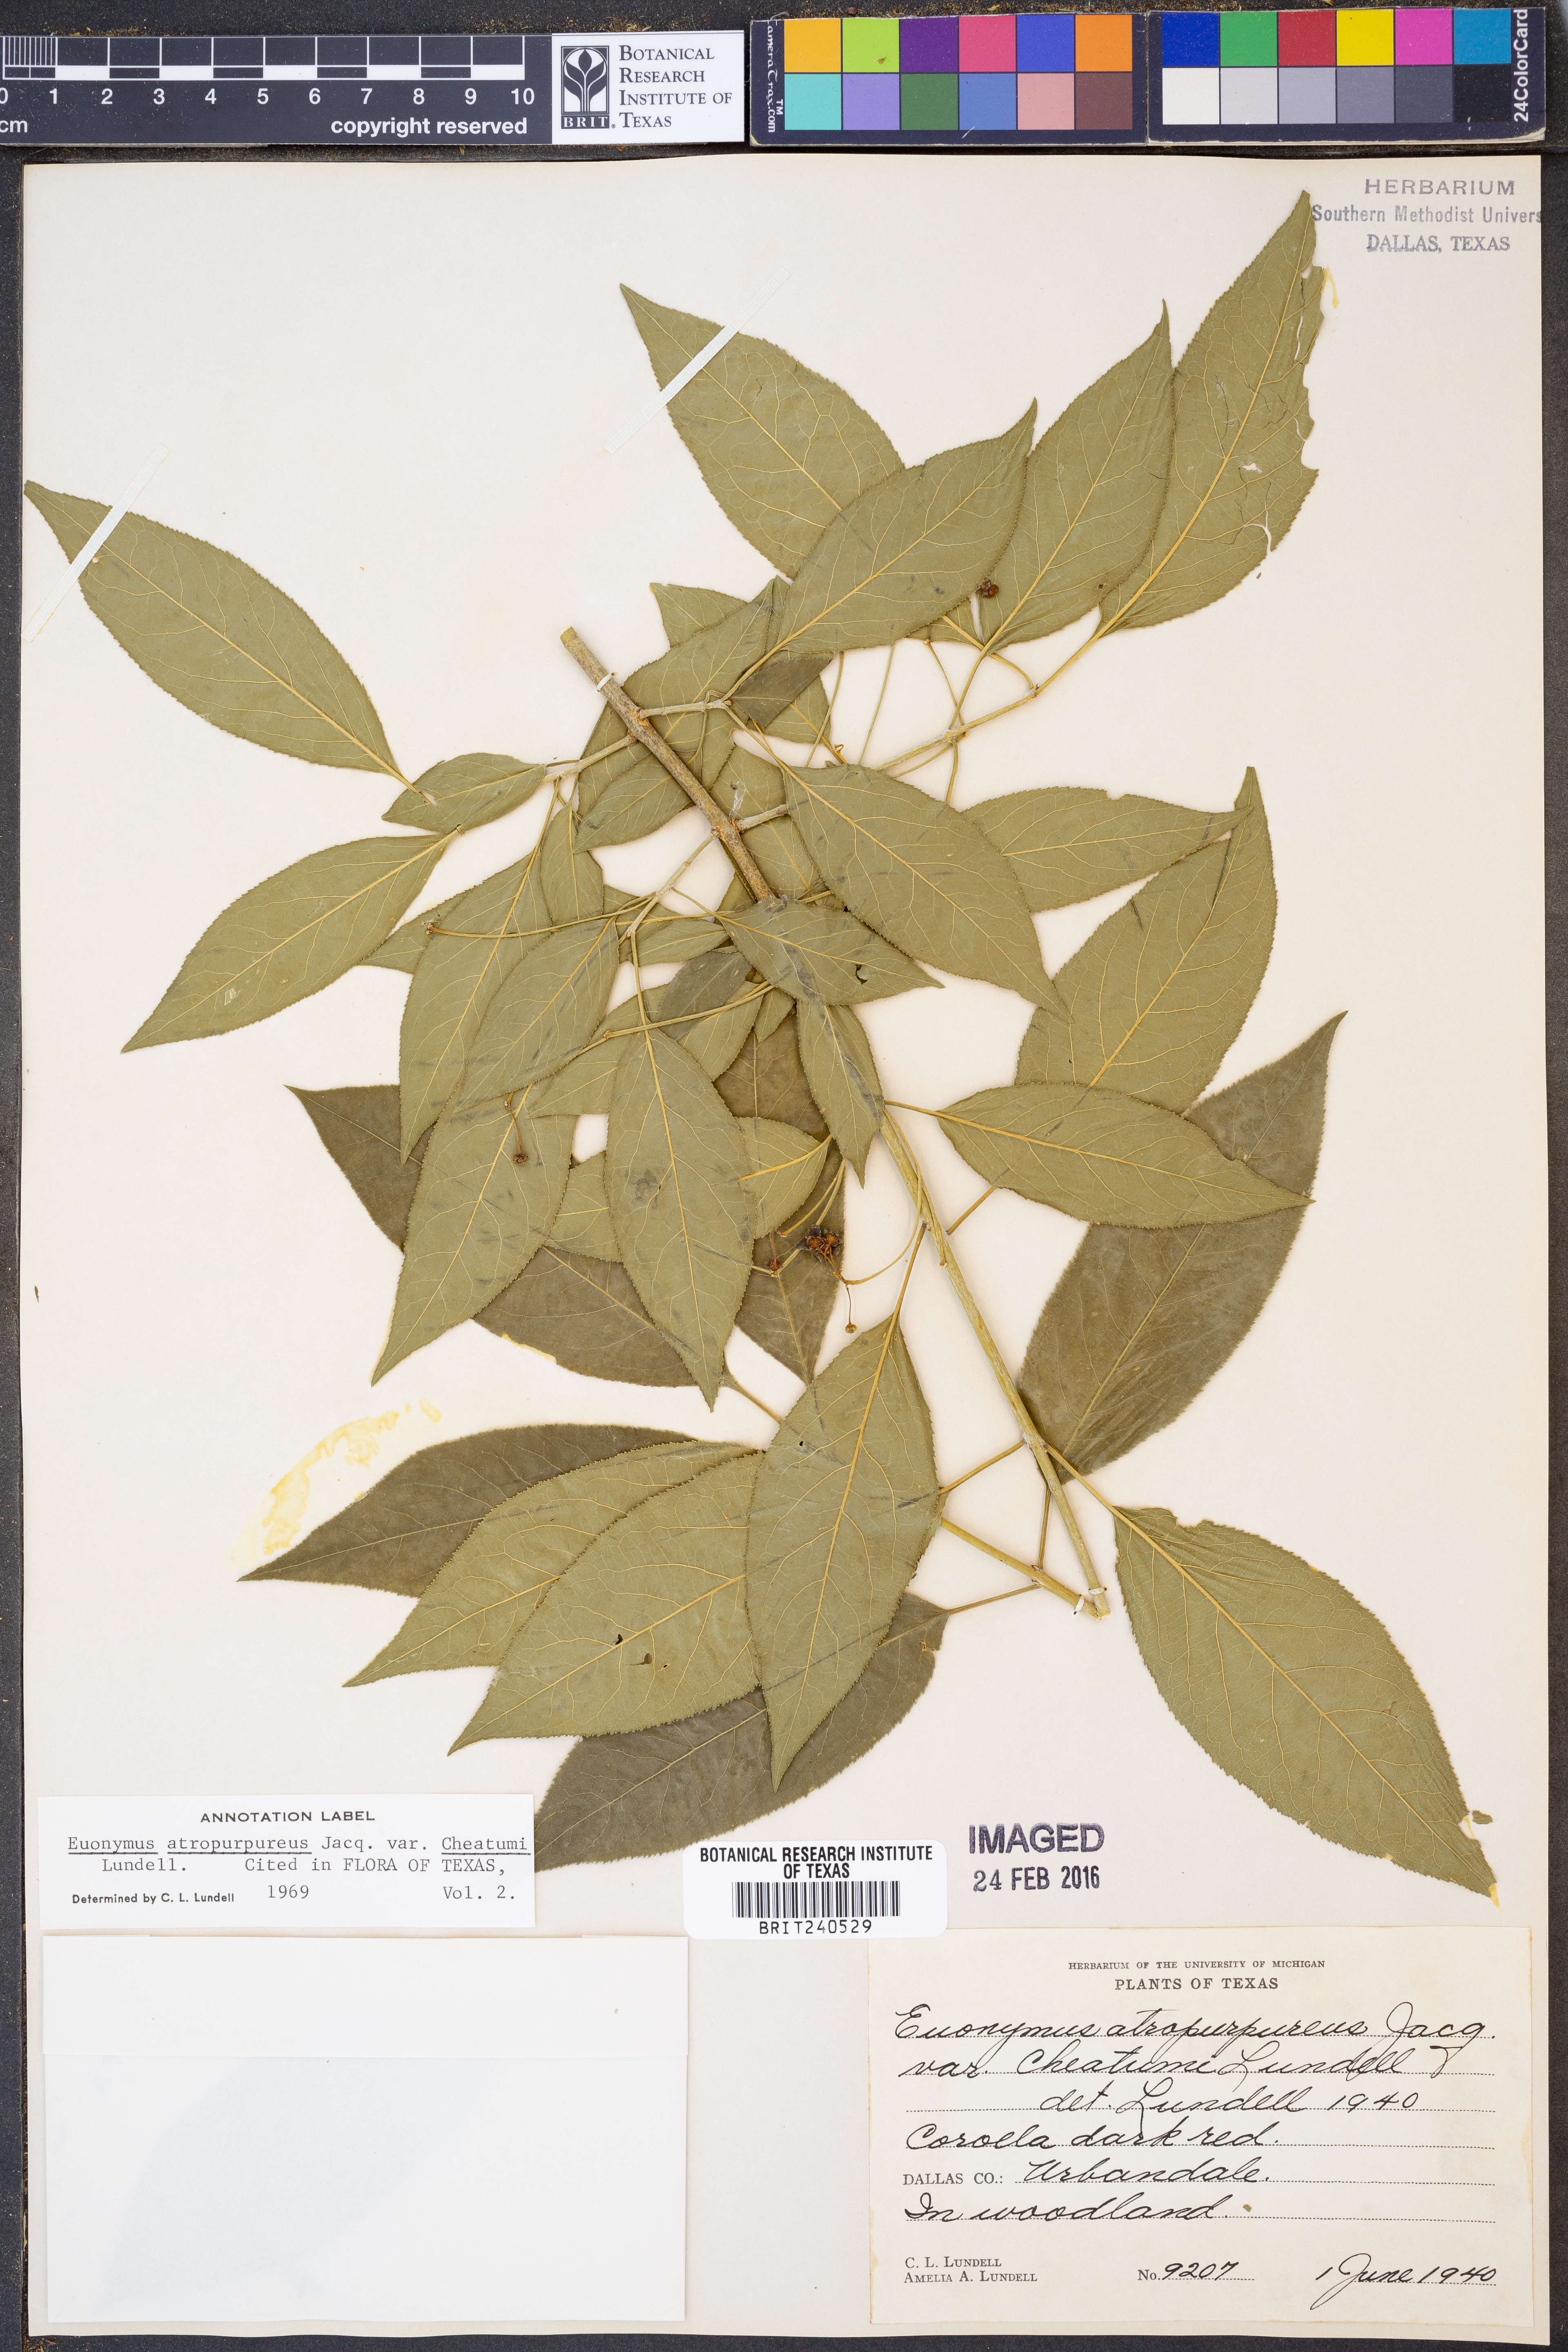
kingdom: Plantae
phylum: Tracheophyta
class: Magnoliopsida
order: Celastrales
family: Celastraceae
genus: Euonymus
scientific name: Euonymus atropurpureus
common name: Eastern wahoo
